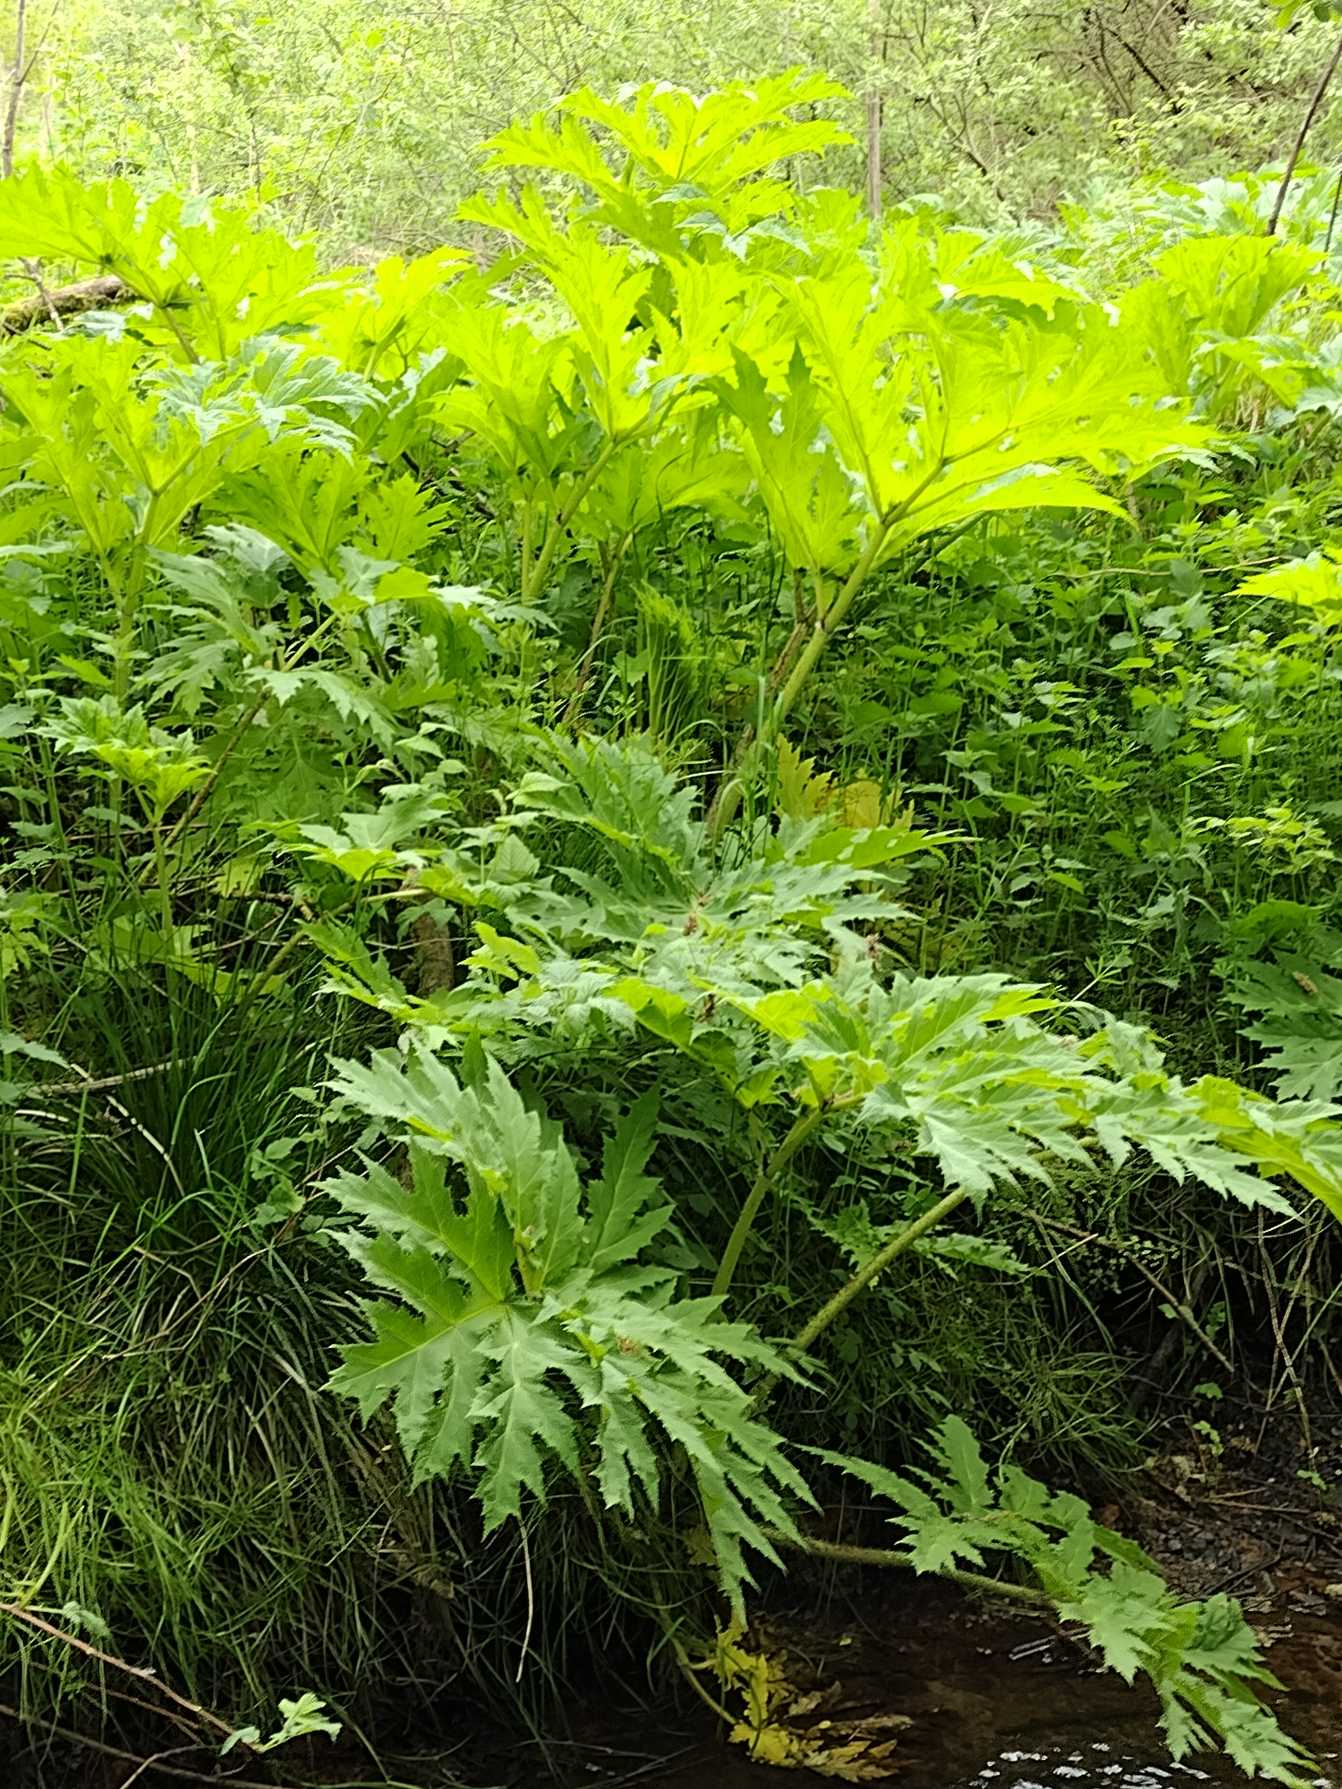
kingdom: Plantae
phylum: Tracheophyta
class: Magnoliopsida
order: Apiales
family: Apiaceae
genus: Heracleum
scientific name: Heracleum mantegazzianum
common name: Kæmpe-bjørneklo
